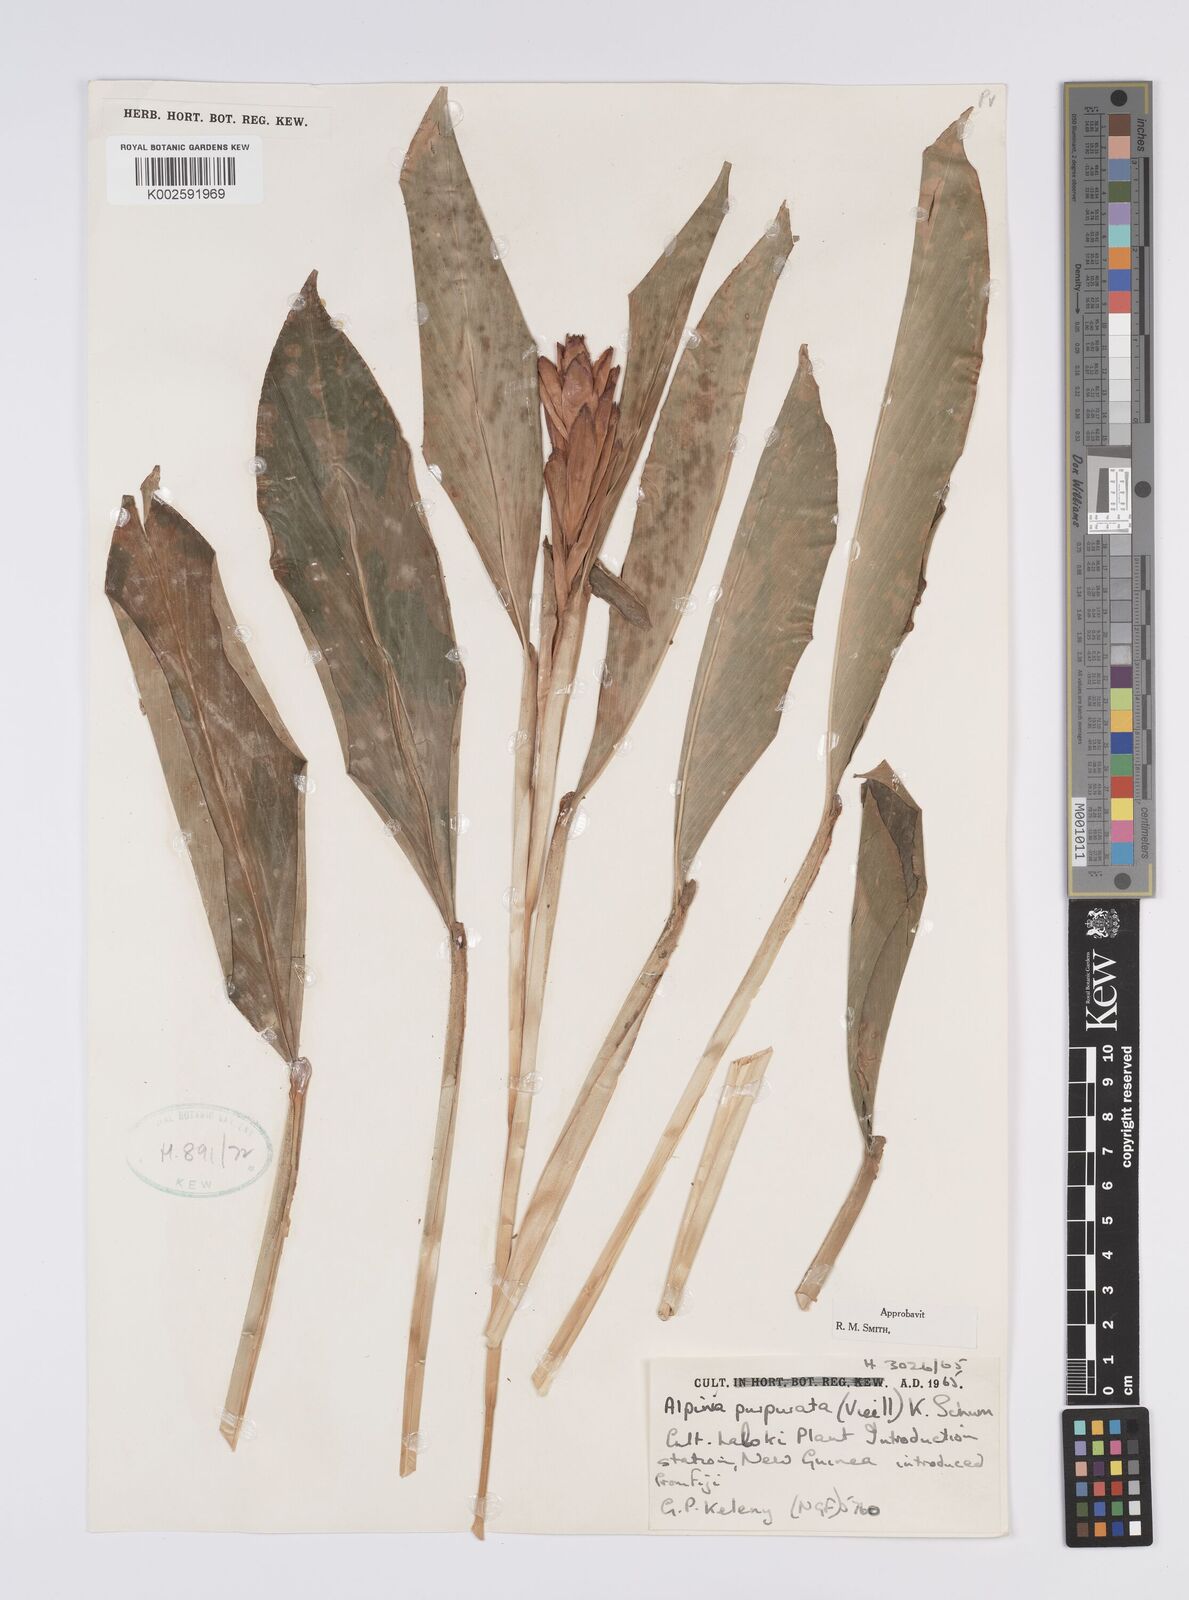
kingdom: Plantae
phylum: Tracheophyta
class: Liliopsida
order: Zingiberales
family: Zingiberaceae
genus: Alpinia
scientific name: Alpinia purpurata
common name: Red ginger
